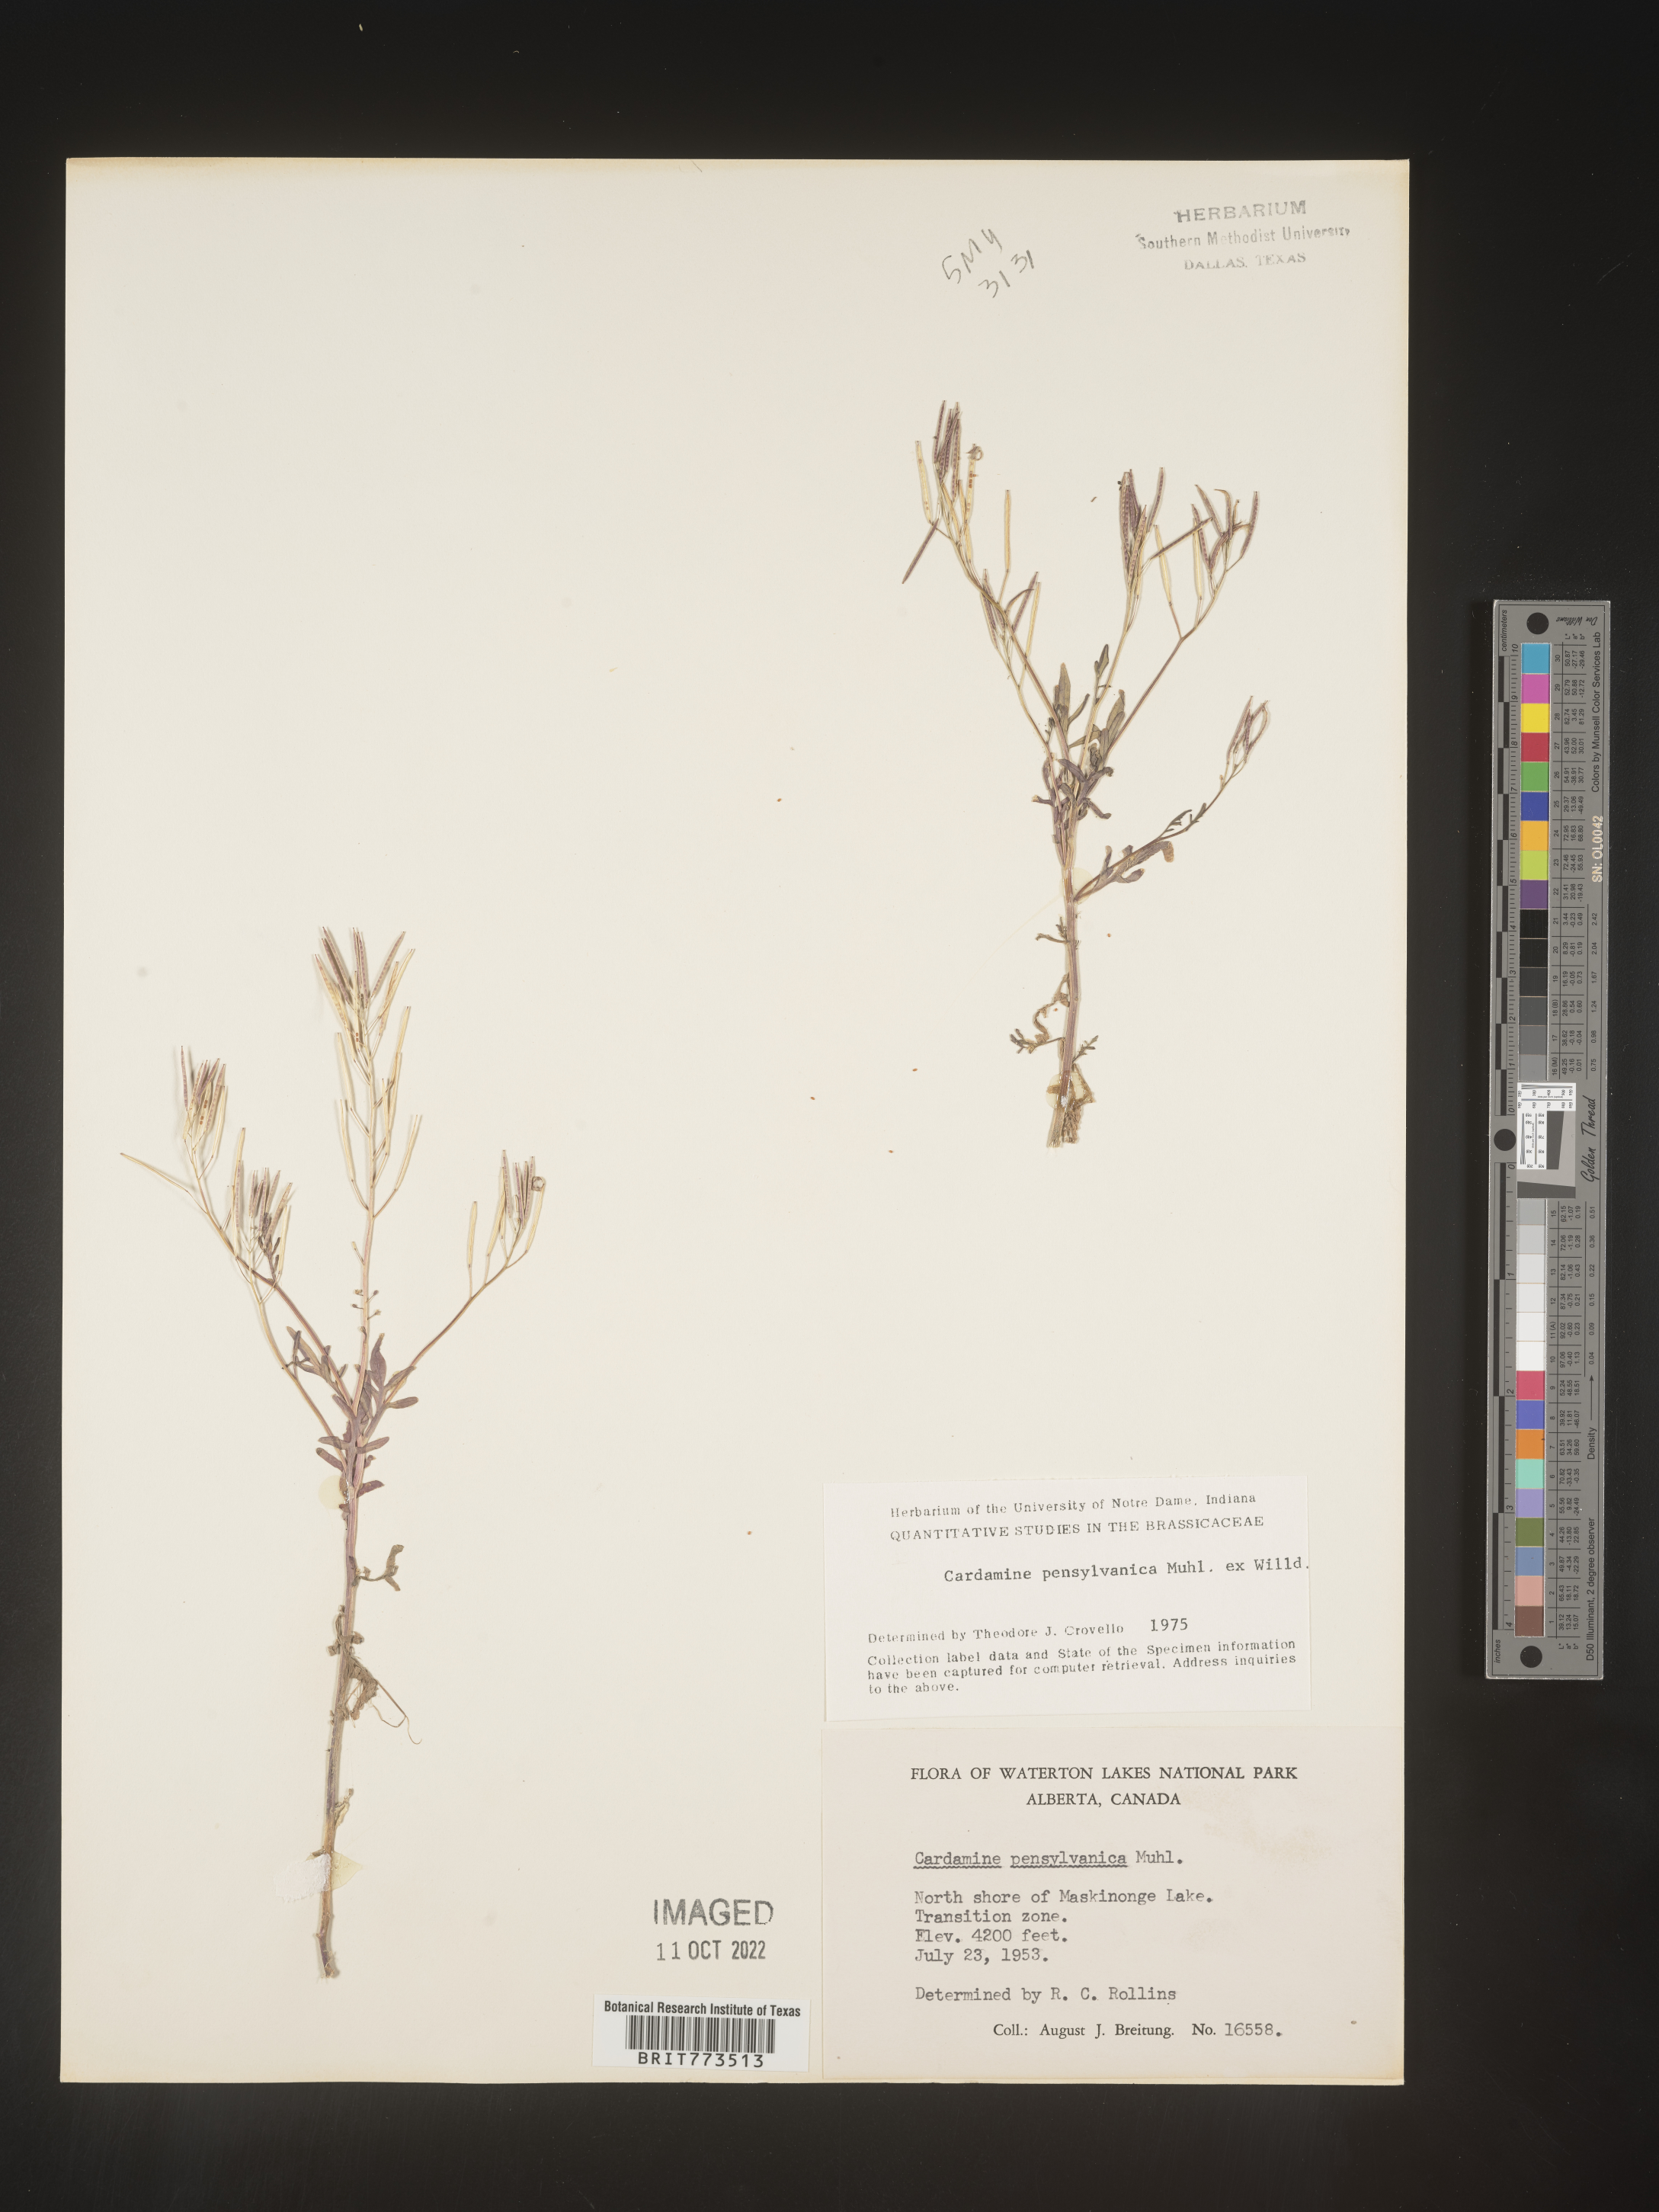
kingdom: Plantae
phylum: Tracheophyta
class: Magnoliopsida
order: Brassicales
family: Brassicaceae
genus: Cardamine
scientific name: Cardamine pensylvanica
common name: Pennsylvania bittercress
